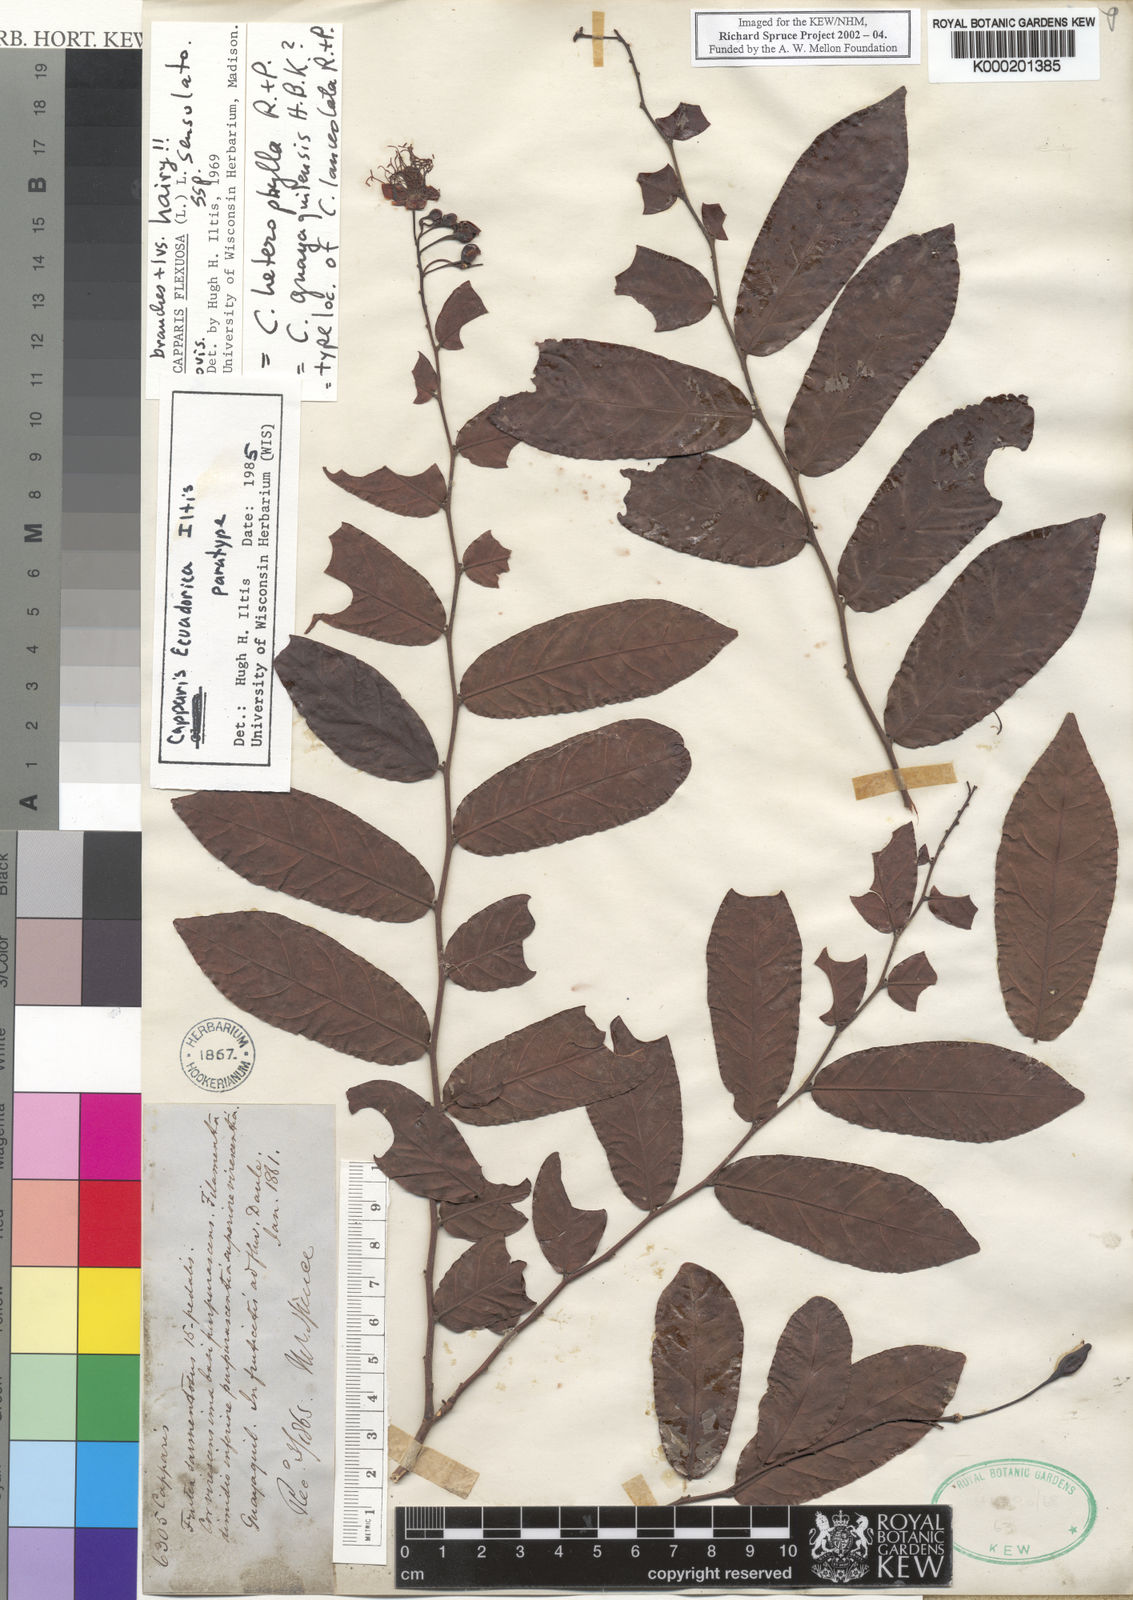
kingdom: Plantae
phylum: Tracheophyta
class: Magnoliopsida
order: Brassicales
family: Capparaceae
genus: Cynophalla
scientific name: Cynophalla ecuadorica
